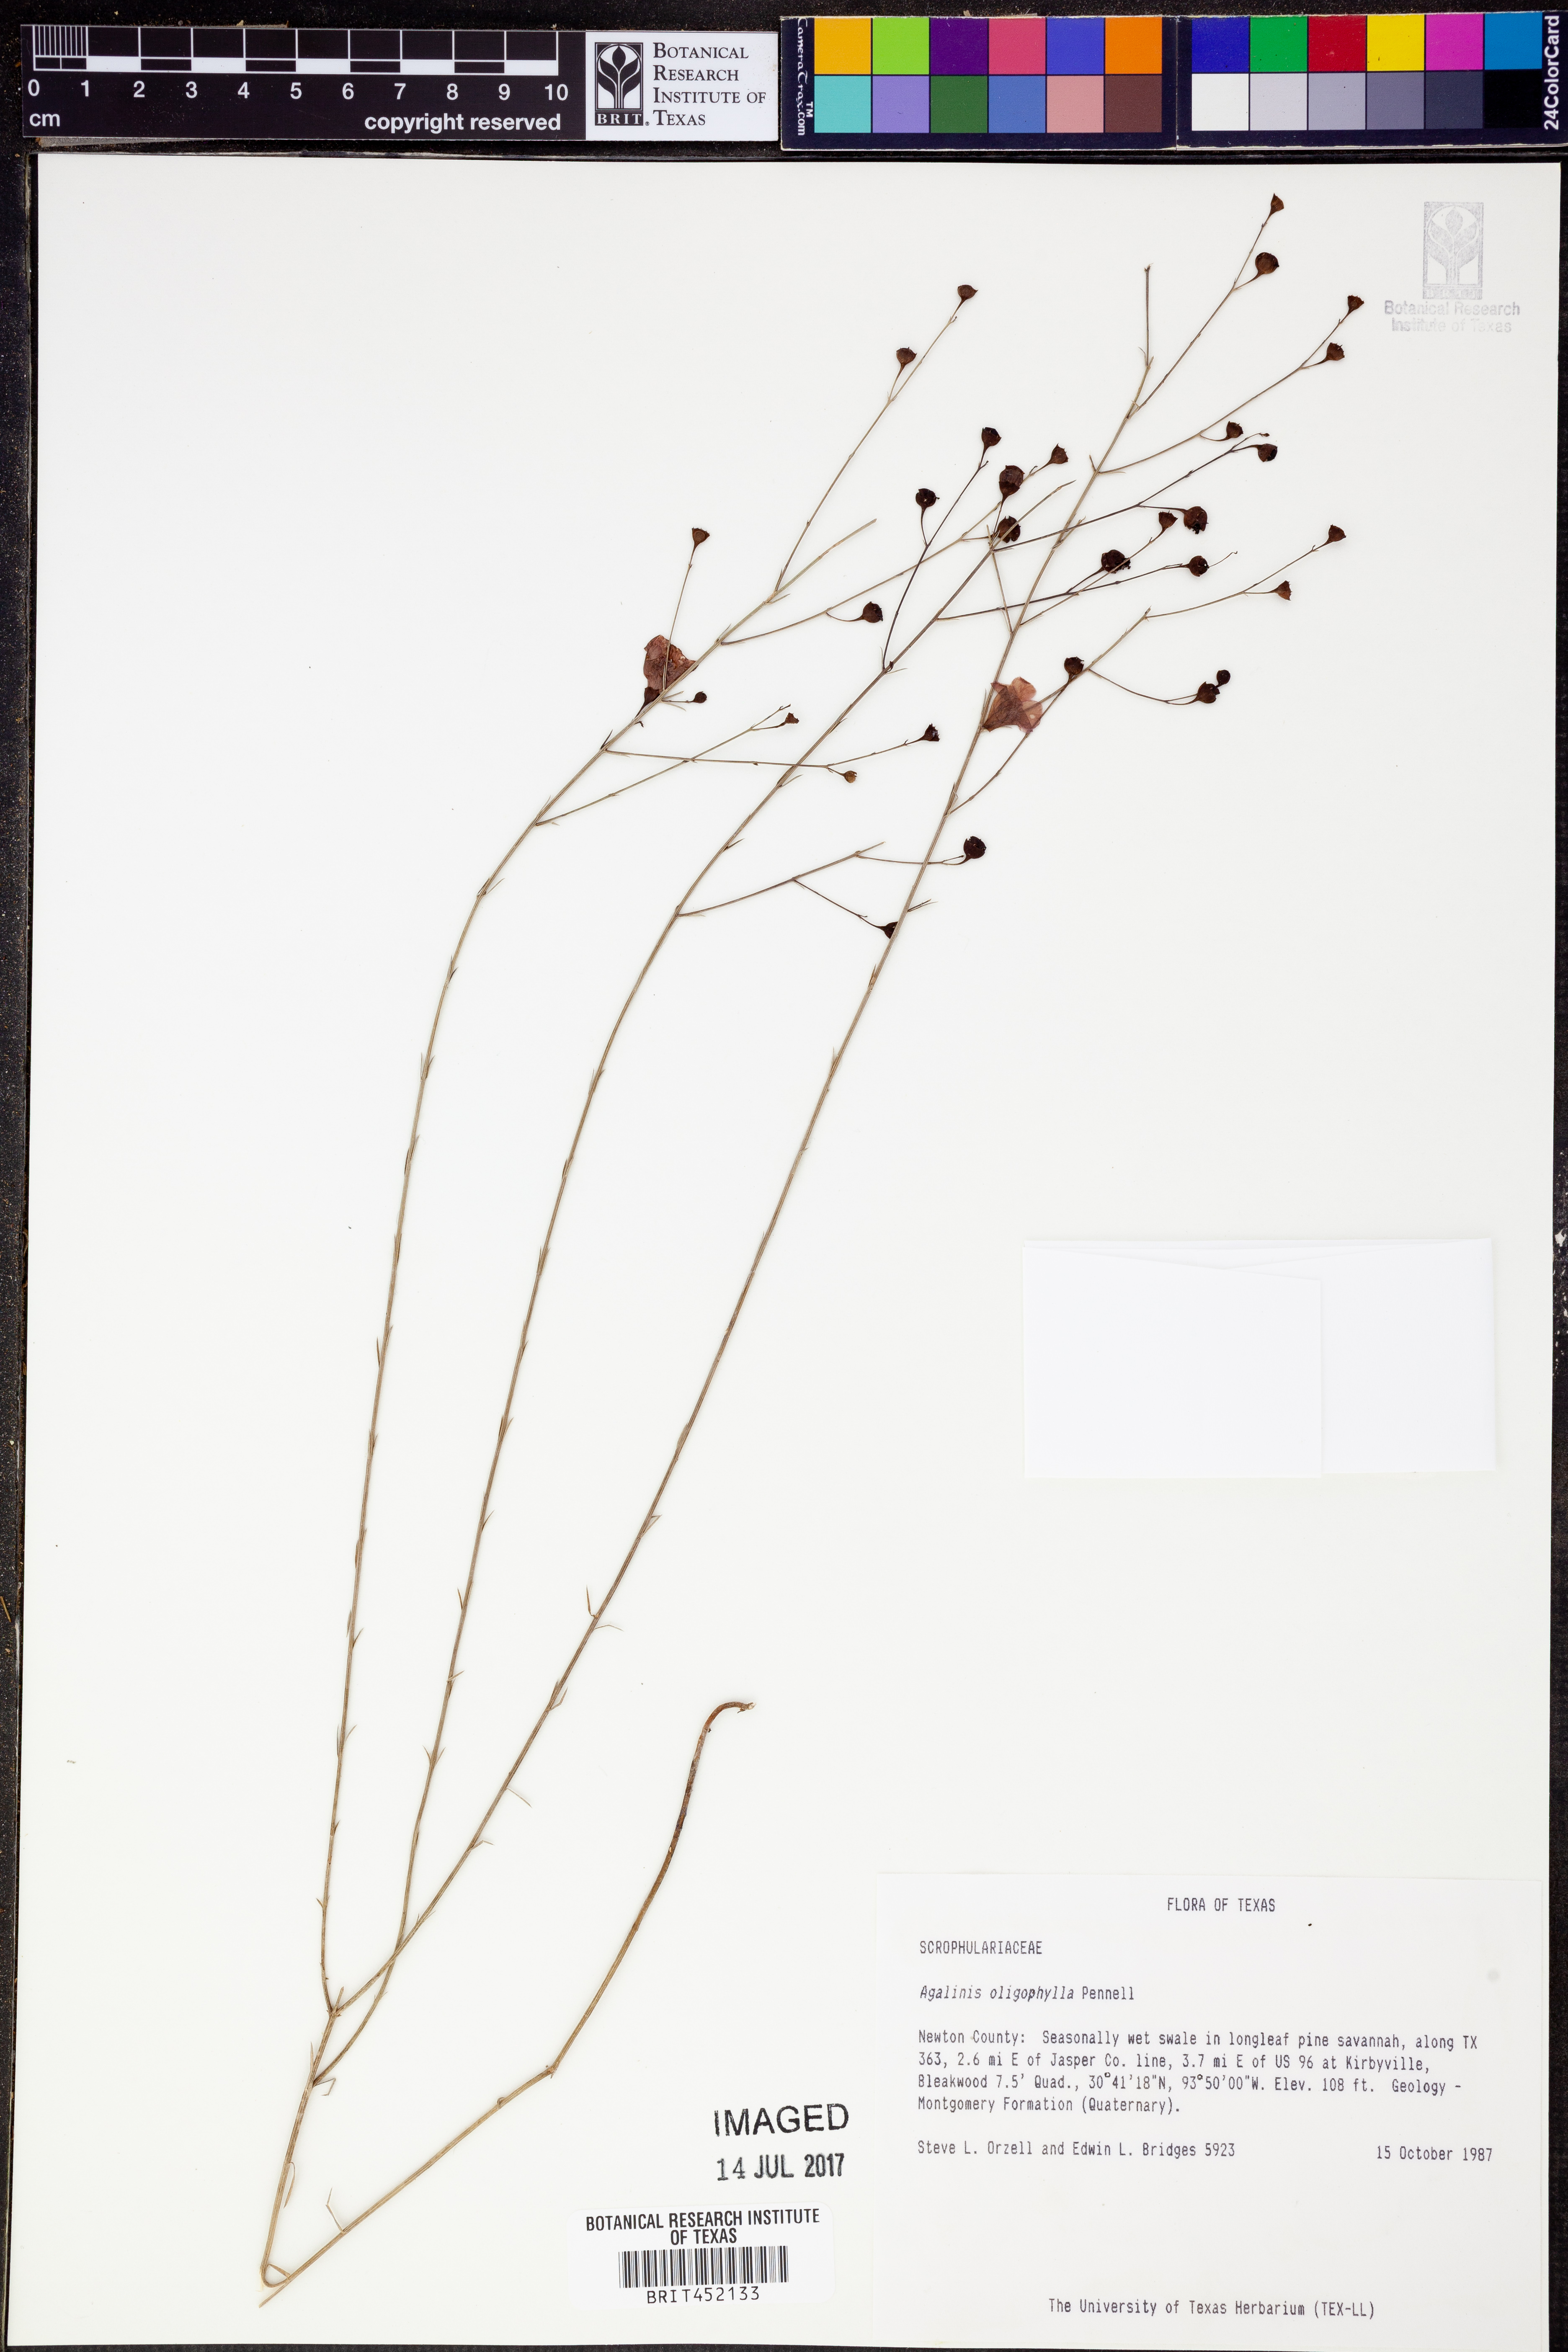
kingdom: Plantae
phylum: Tracheophyta
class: Magnoliopsida
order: Lamiales
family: Orobanchaceae
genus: Agalinis
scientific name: Agalinis oligophylla
